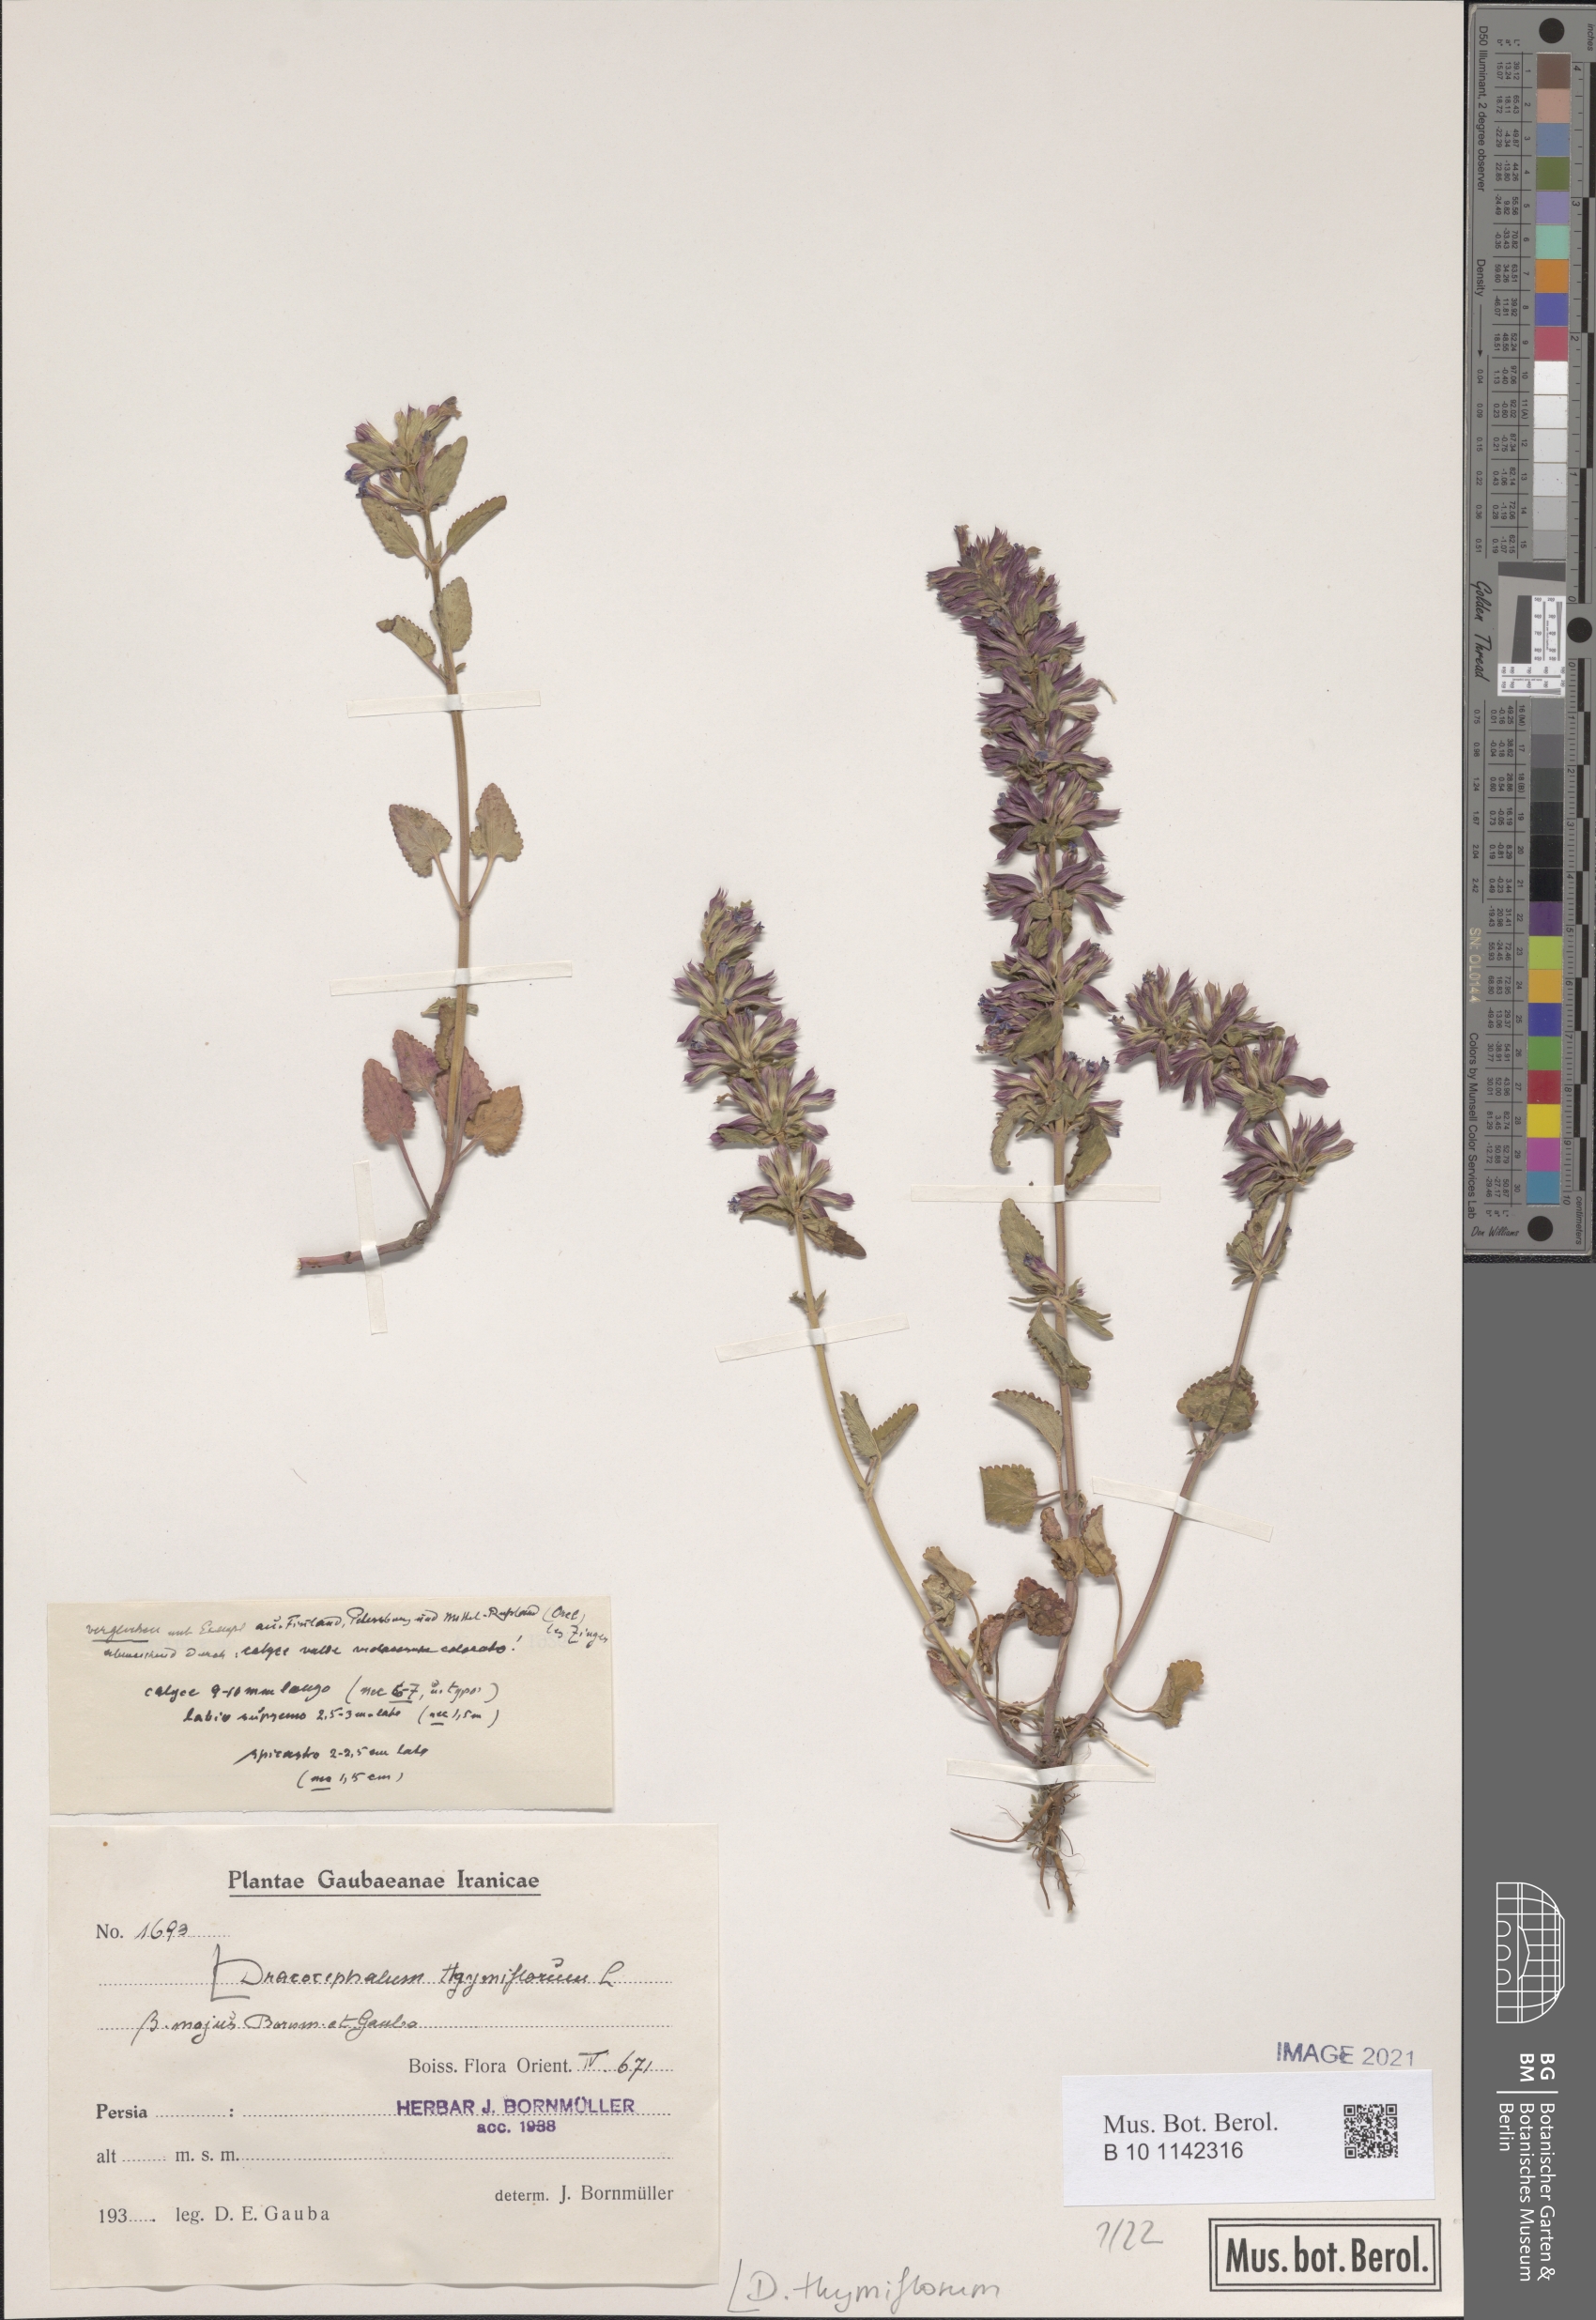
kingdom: Plantae
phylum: Tracheophyta
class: Magnoliopsida
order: Lamiales
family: Lamiaceae
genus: Dracocephalum
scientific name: Dracocephalum thymiflorum
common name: Thymeleaf dragonhead
